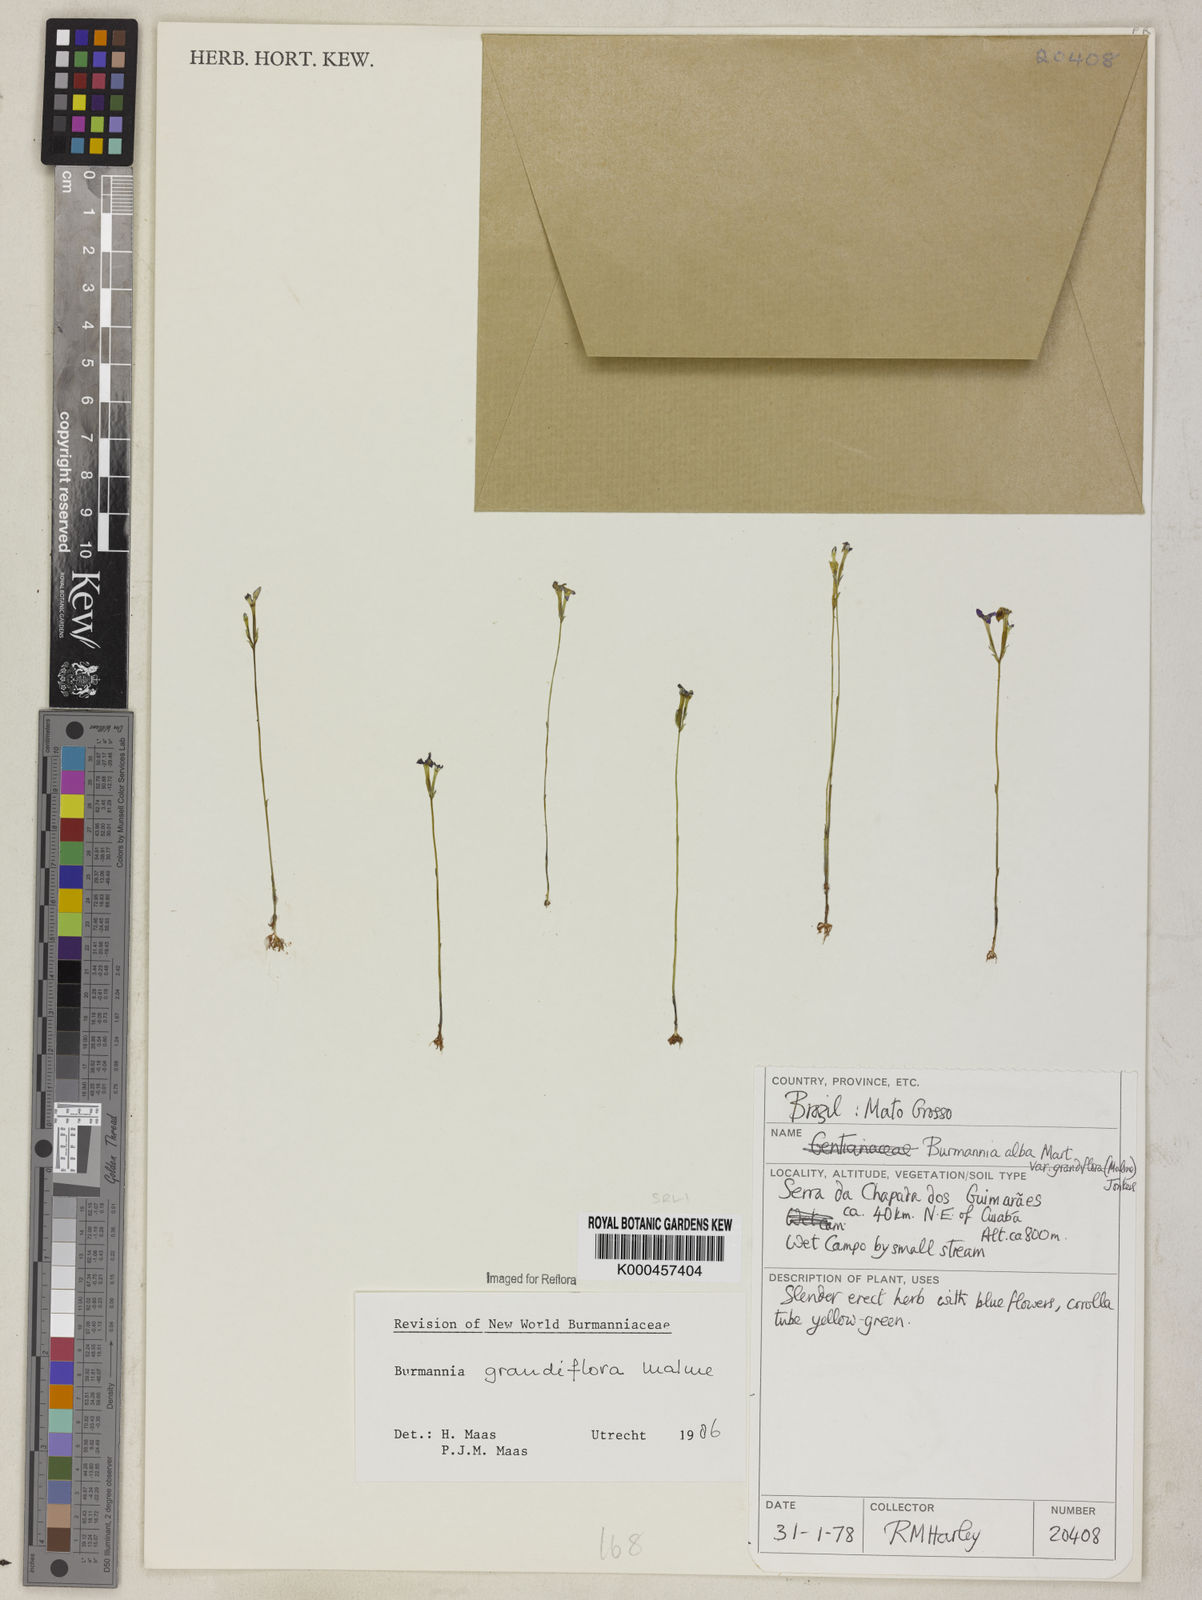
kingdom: Plantae
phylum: Tracheophyta
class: Liliopsida
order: Dioscoreales
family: Burmanniaceae
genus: Burmannia
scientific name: Burmannia grandiflora
